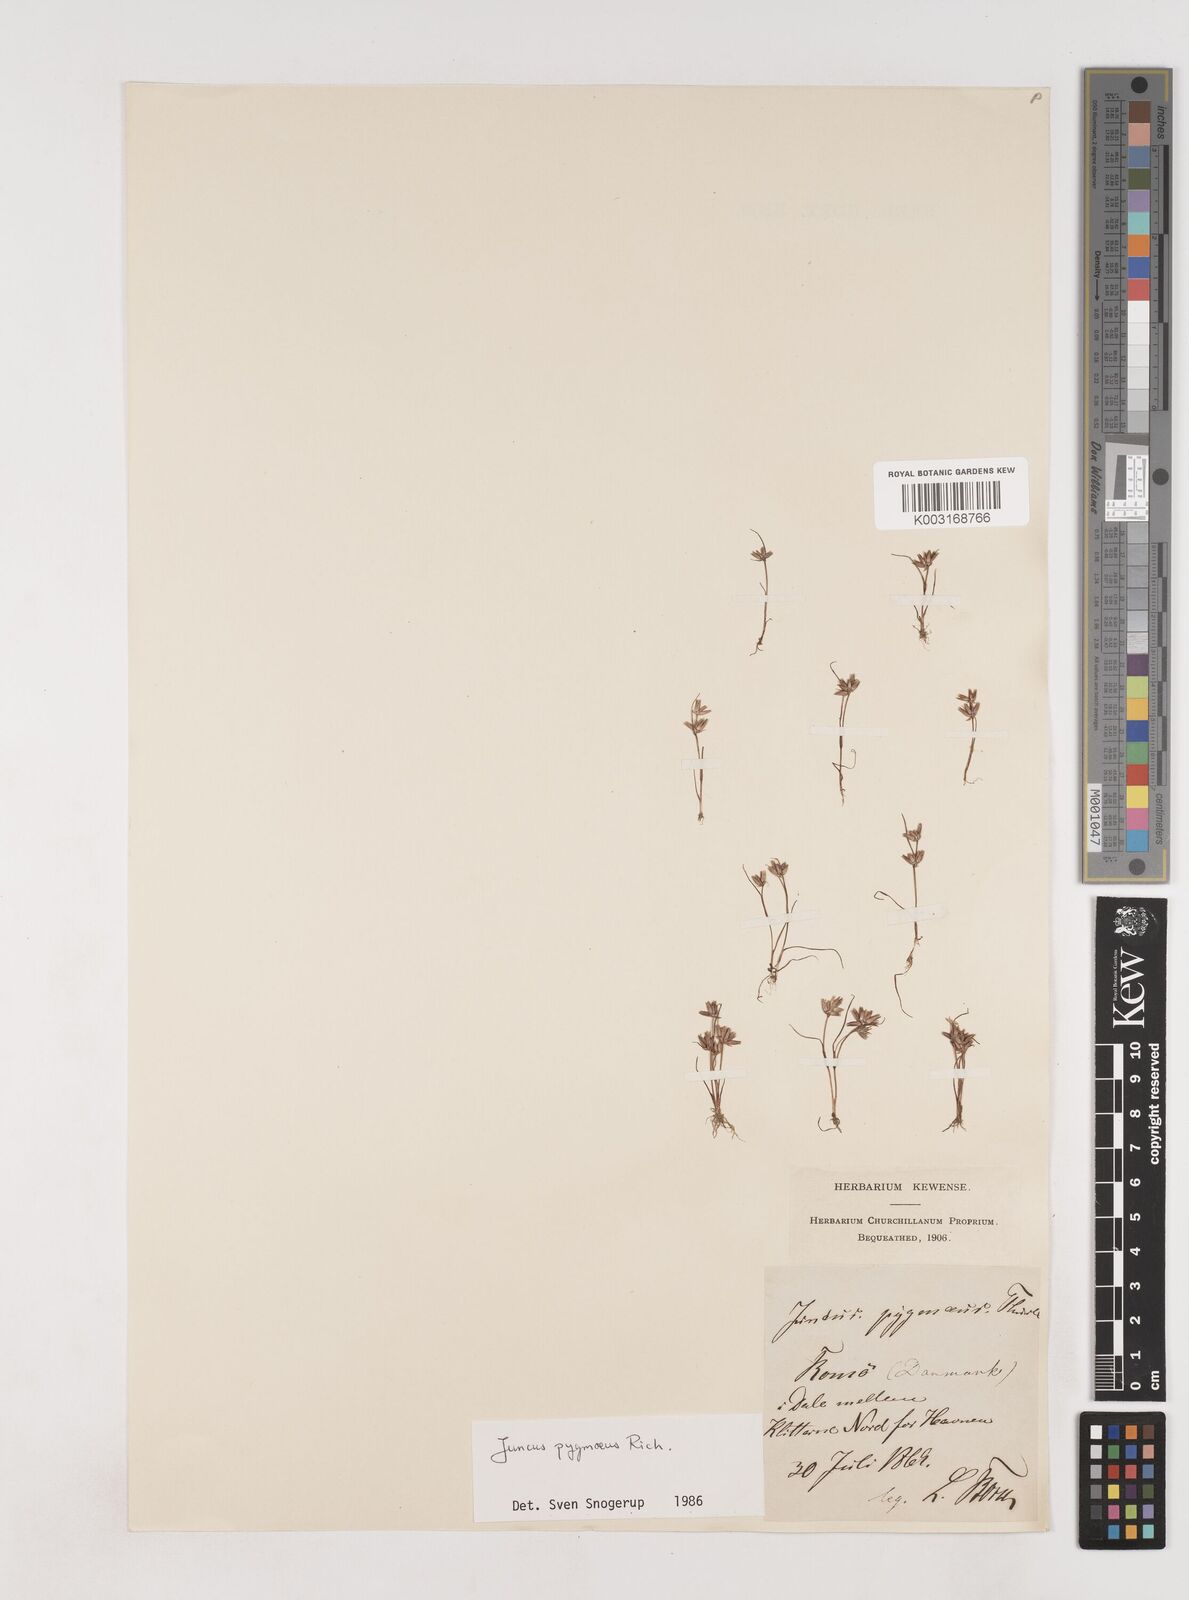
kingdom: Plantae
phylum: Tracheophyta
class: Liliopsida
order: Poales
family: Juncaceae
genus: Juncus
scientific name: Juncus pygmaeus
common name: Pigmy rush
